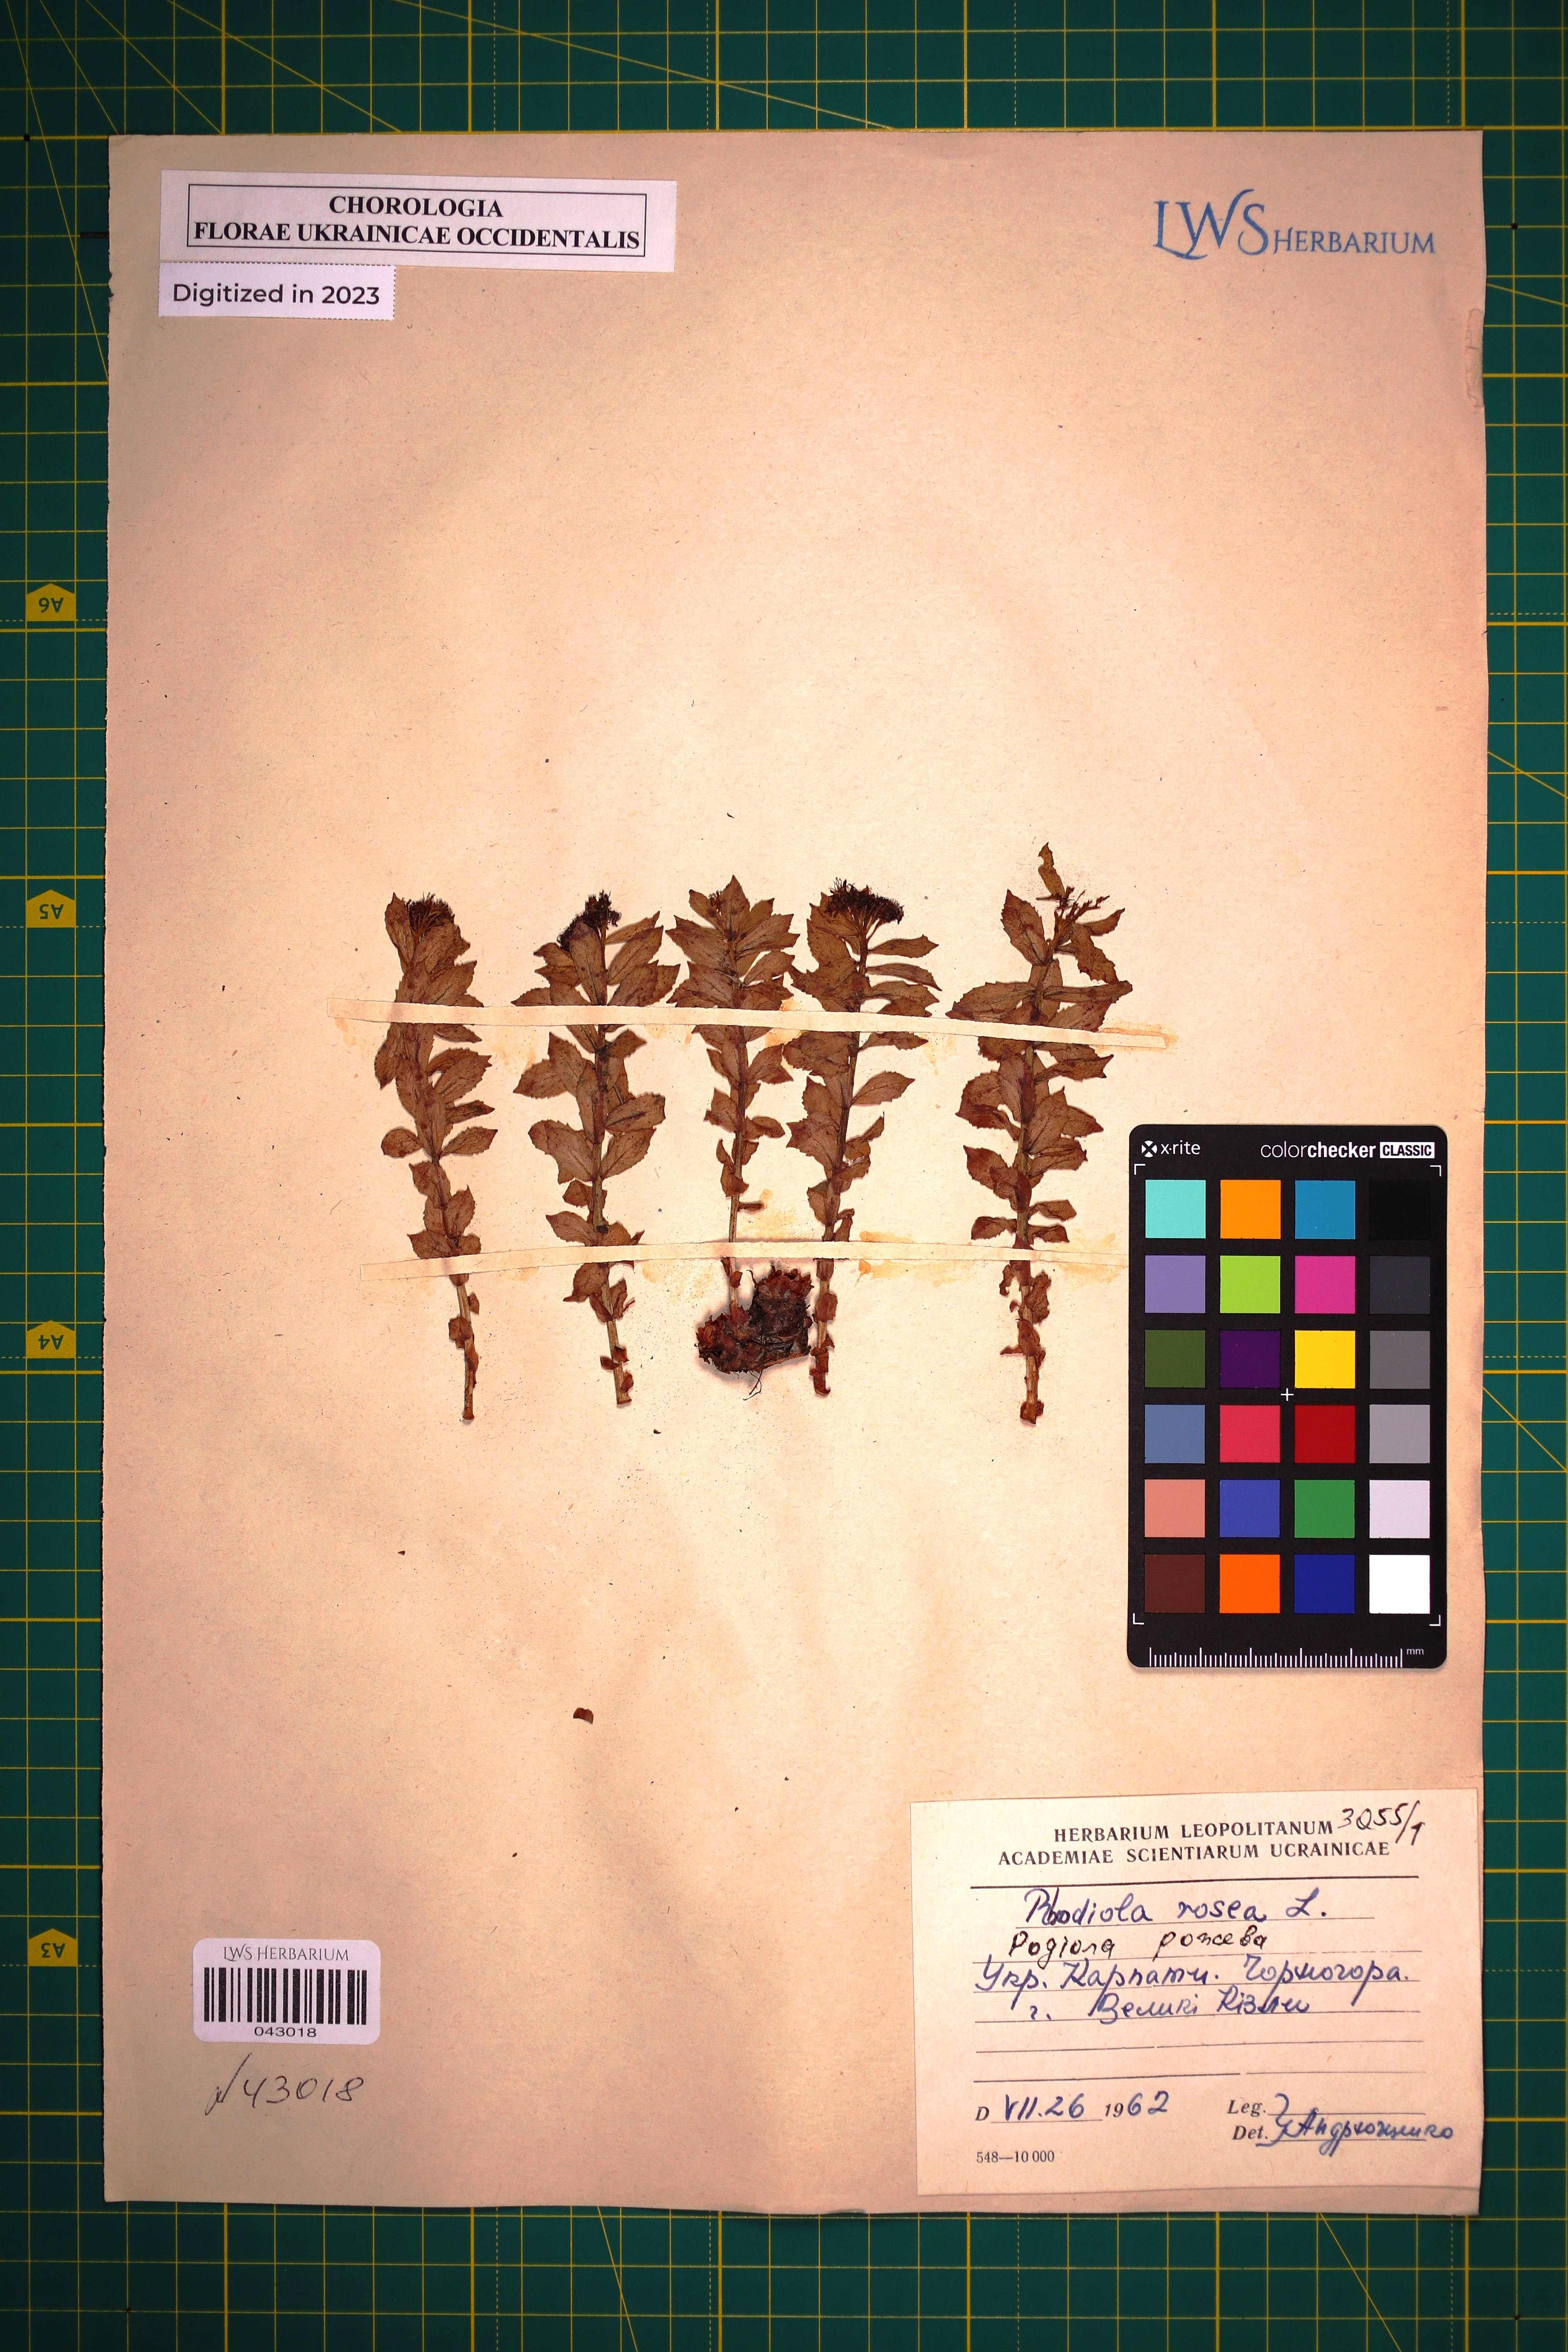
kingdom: Plantae
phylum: Tracheophyta
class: Magnoliopsida
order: Saxifragales
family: Crassulaceae
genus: Rhodiola
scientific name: Rhodiola rosea
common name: Roseroot
